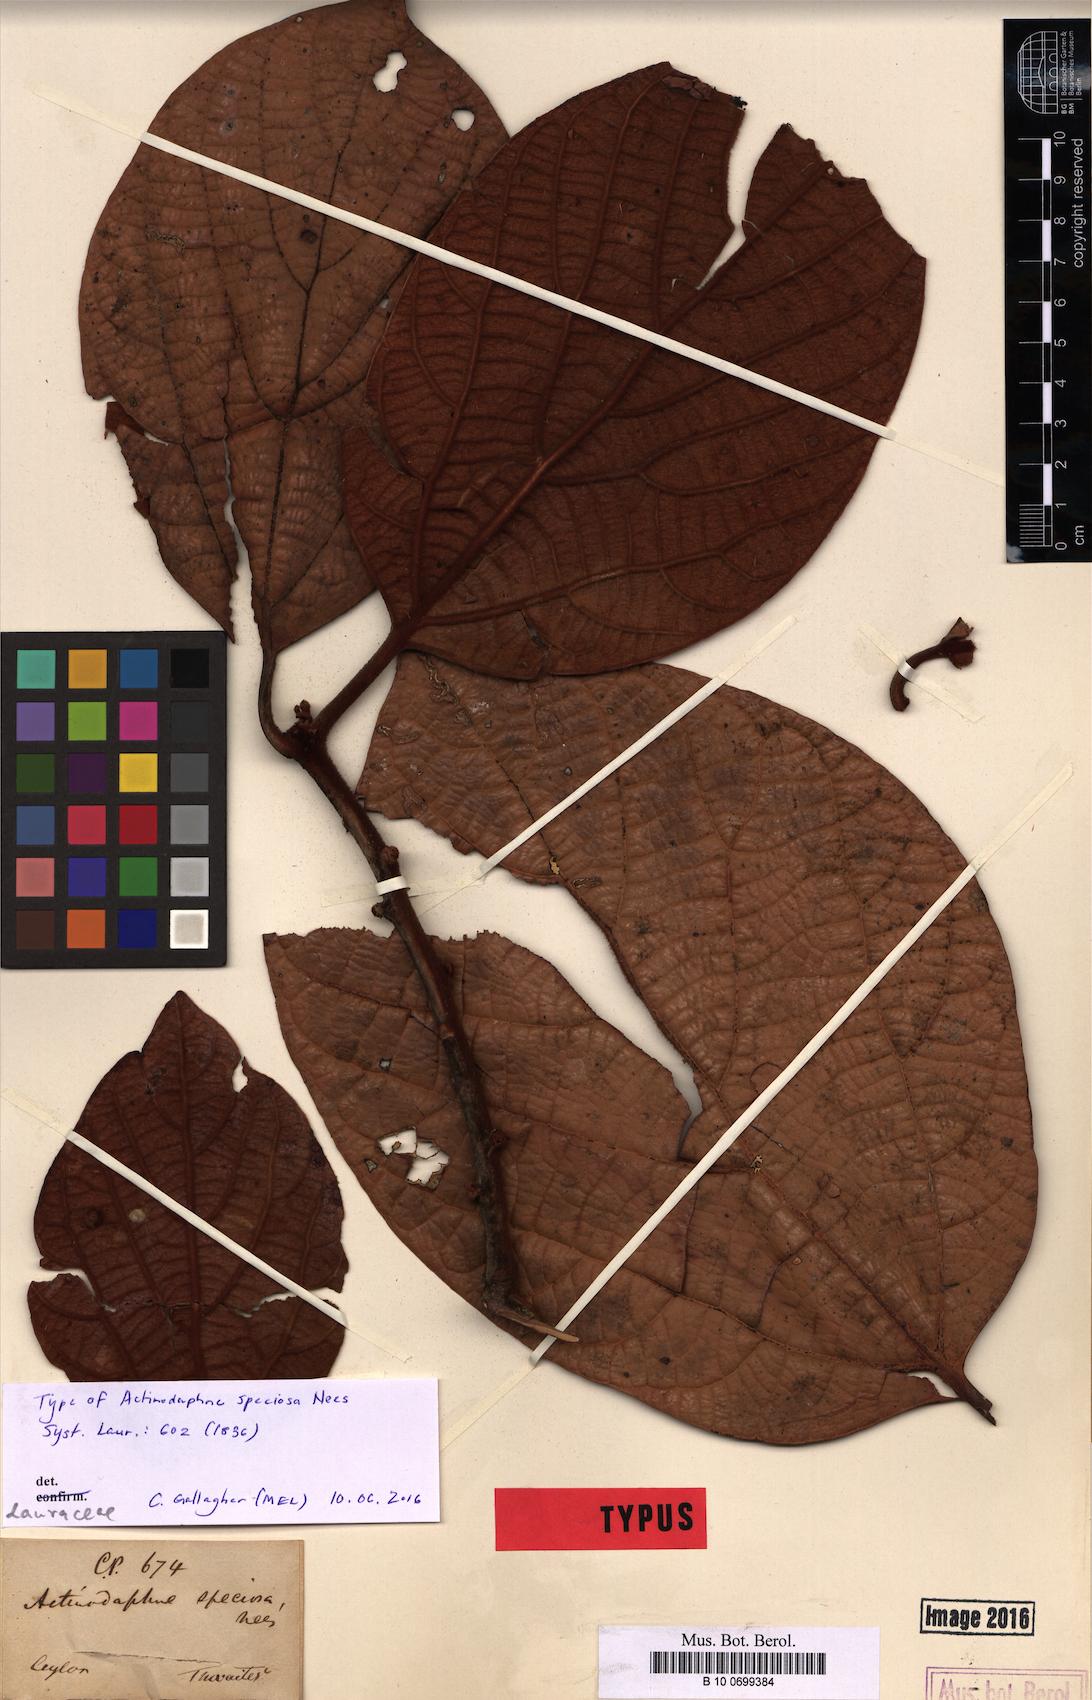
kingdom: Plantae
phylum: Tracheophyta
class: Magnoliopsida
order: Laurales
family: Lauraceae
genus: Actinodaphne
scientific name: Actinodaphne speciosa
